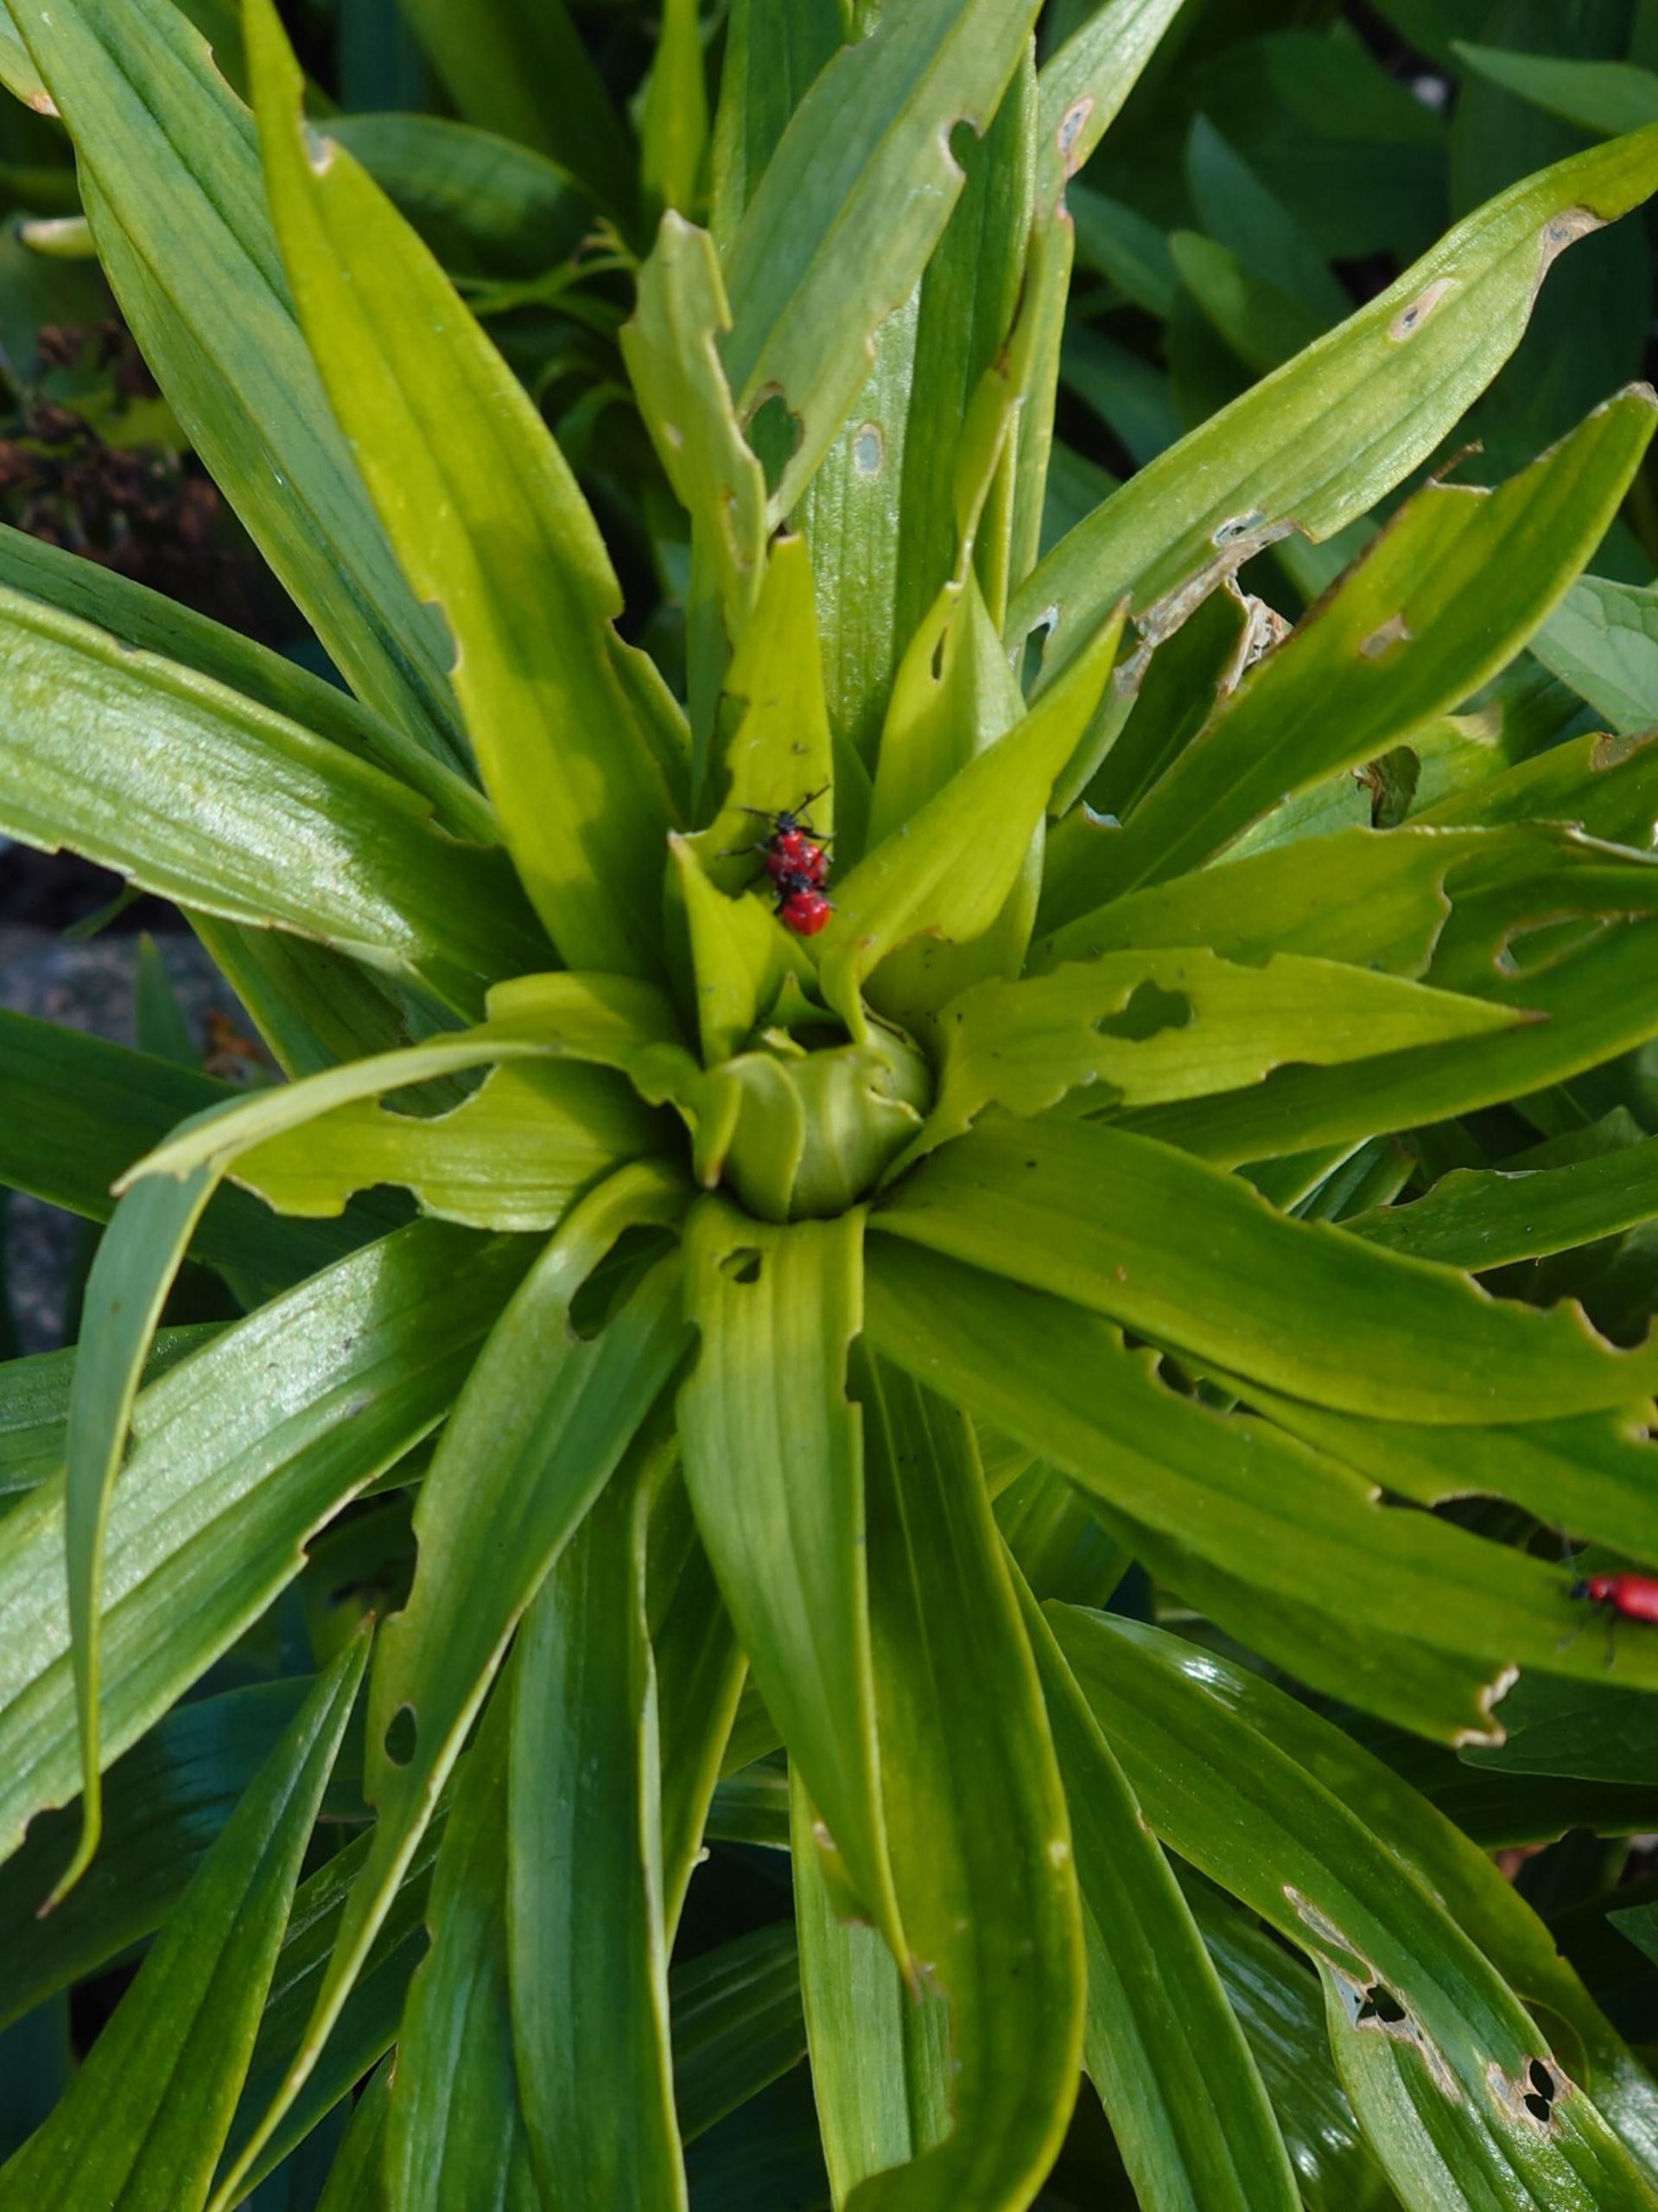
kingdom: Animalia
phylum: Arthropoda
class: Insecta
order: Coleoptera
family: Chrysomelidae
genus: Lilioceris
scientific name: Lilioceris lilii
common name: Liljebille
